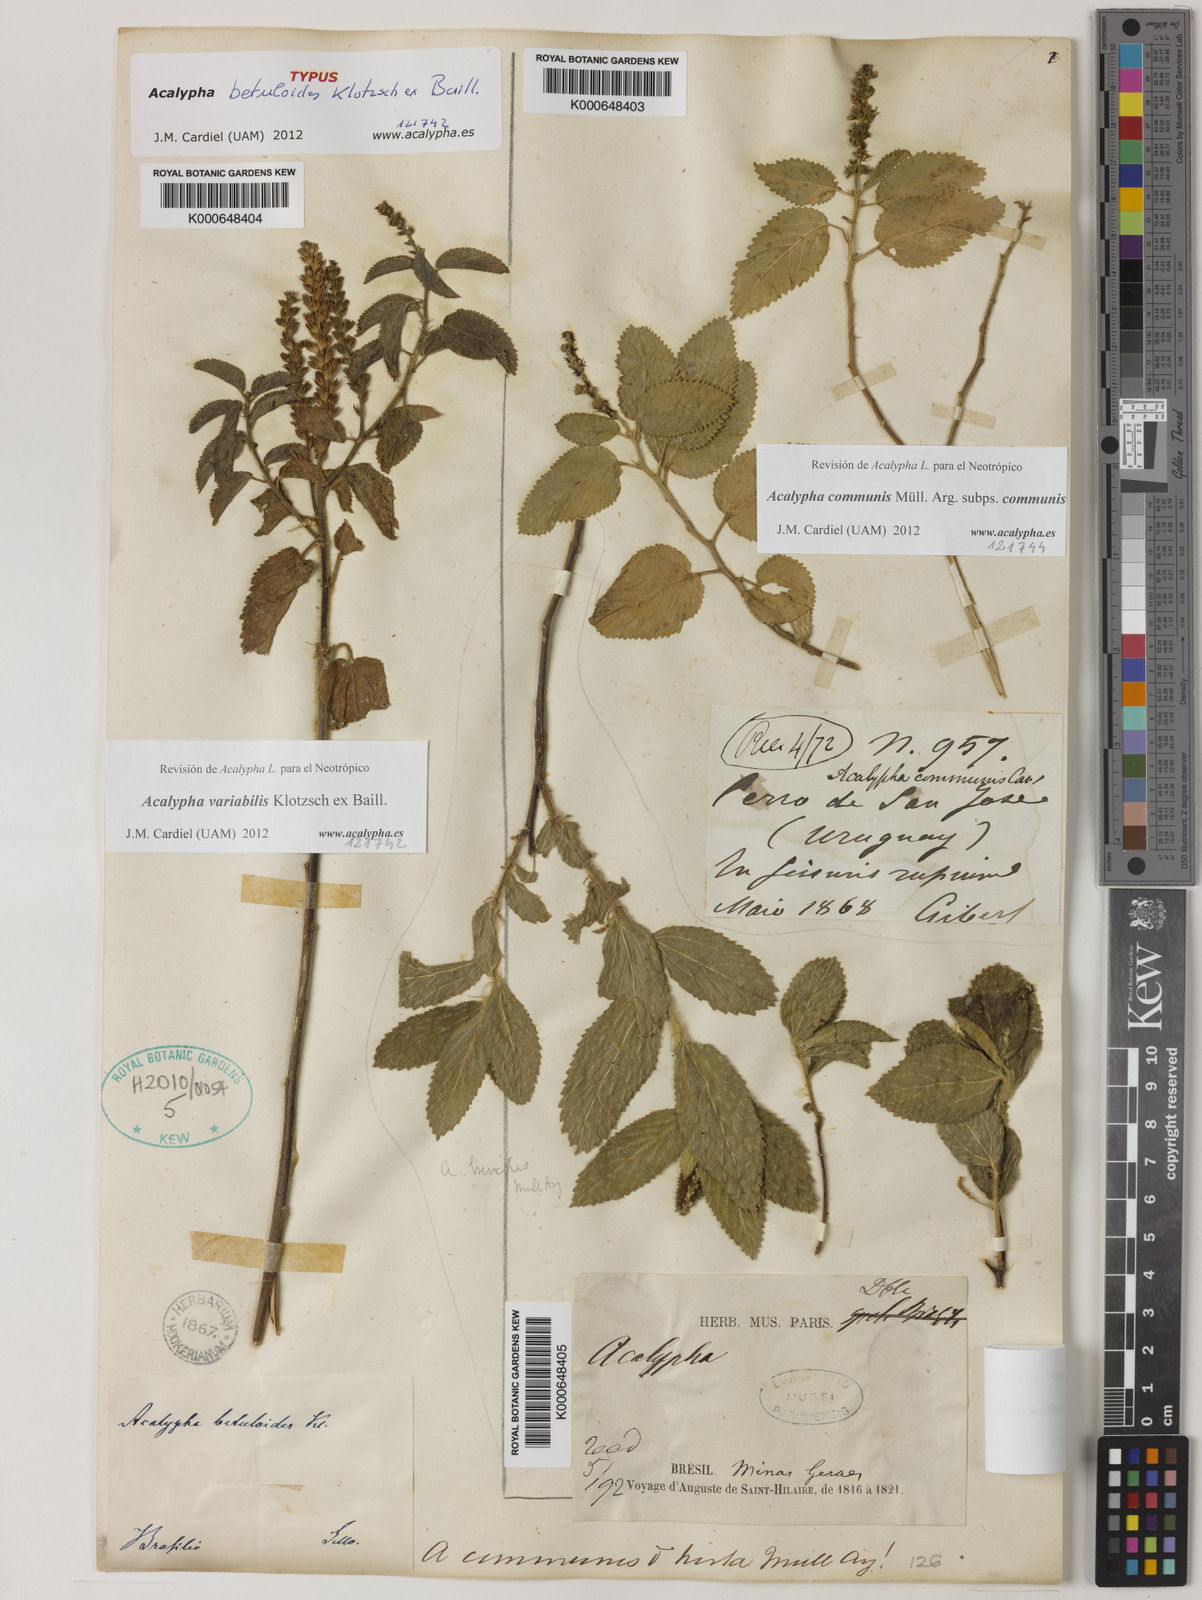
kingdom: Plantae
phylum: Tracheophyta
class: Magnoliopsida
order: Malpighiales
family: Euphorbiaceae
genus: Acalypha
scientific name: Acalypha vellamea
